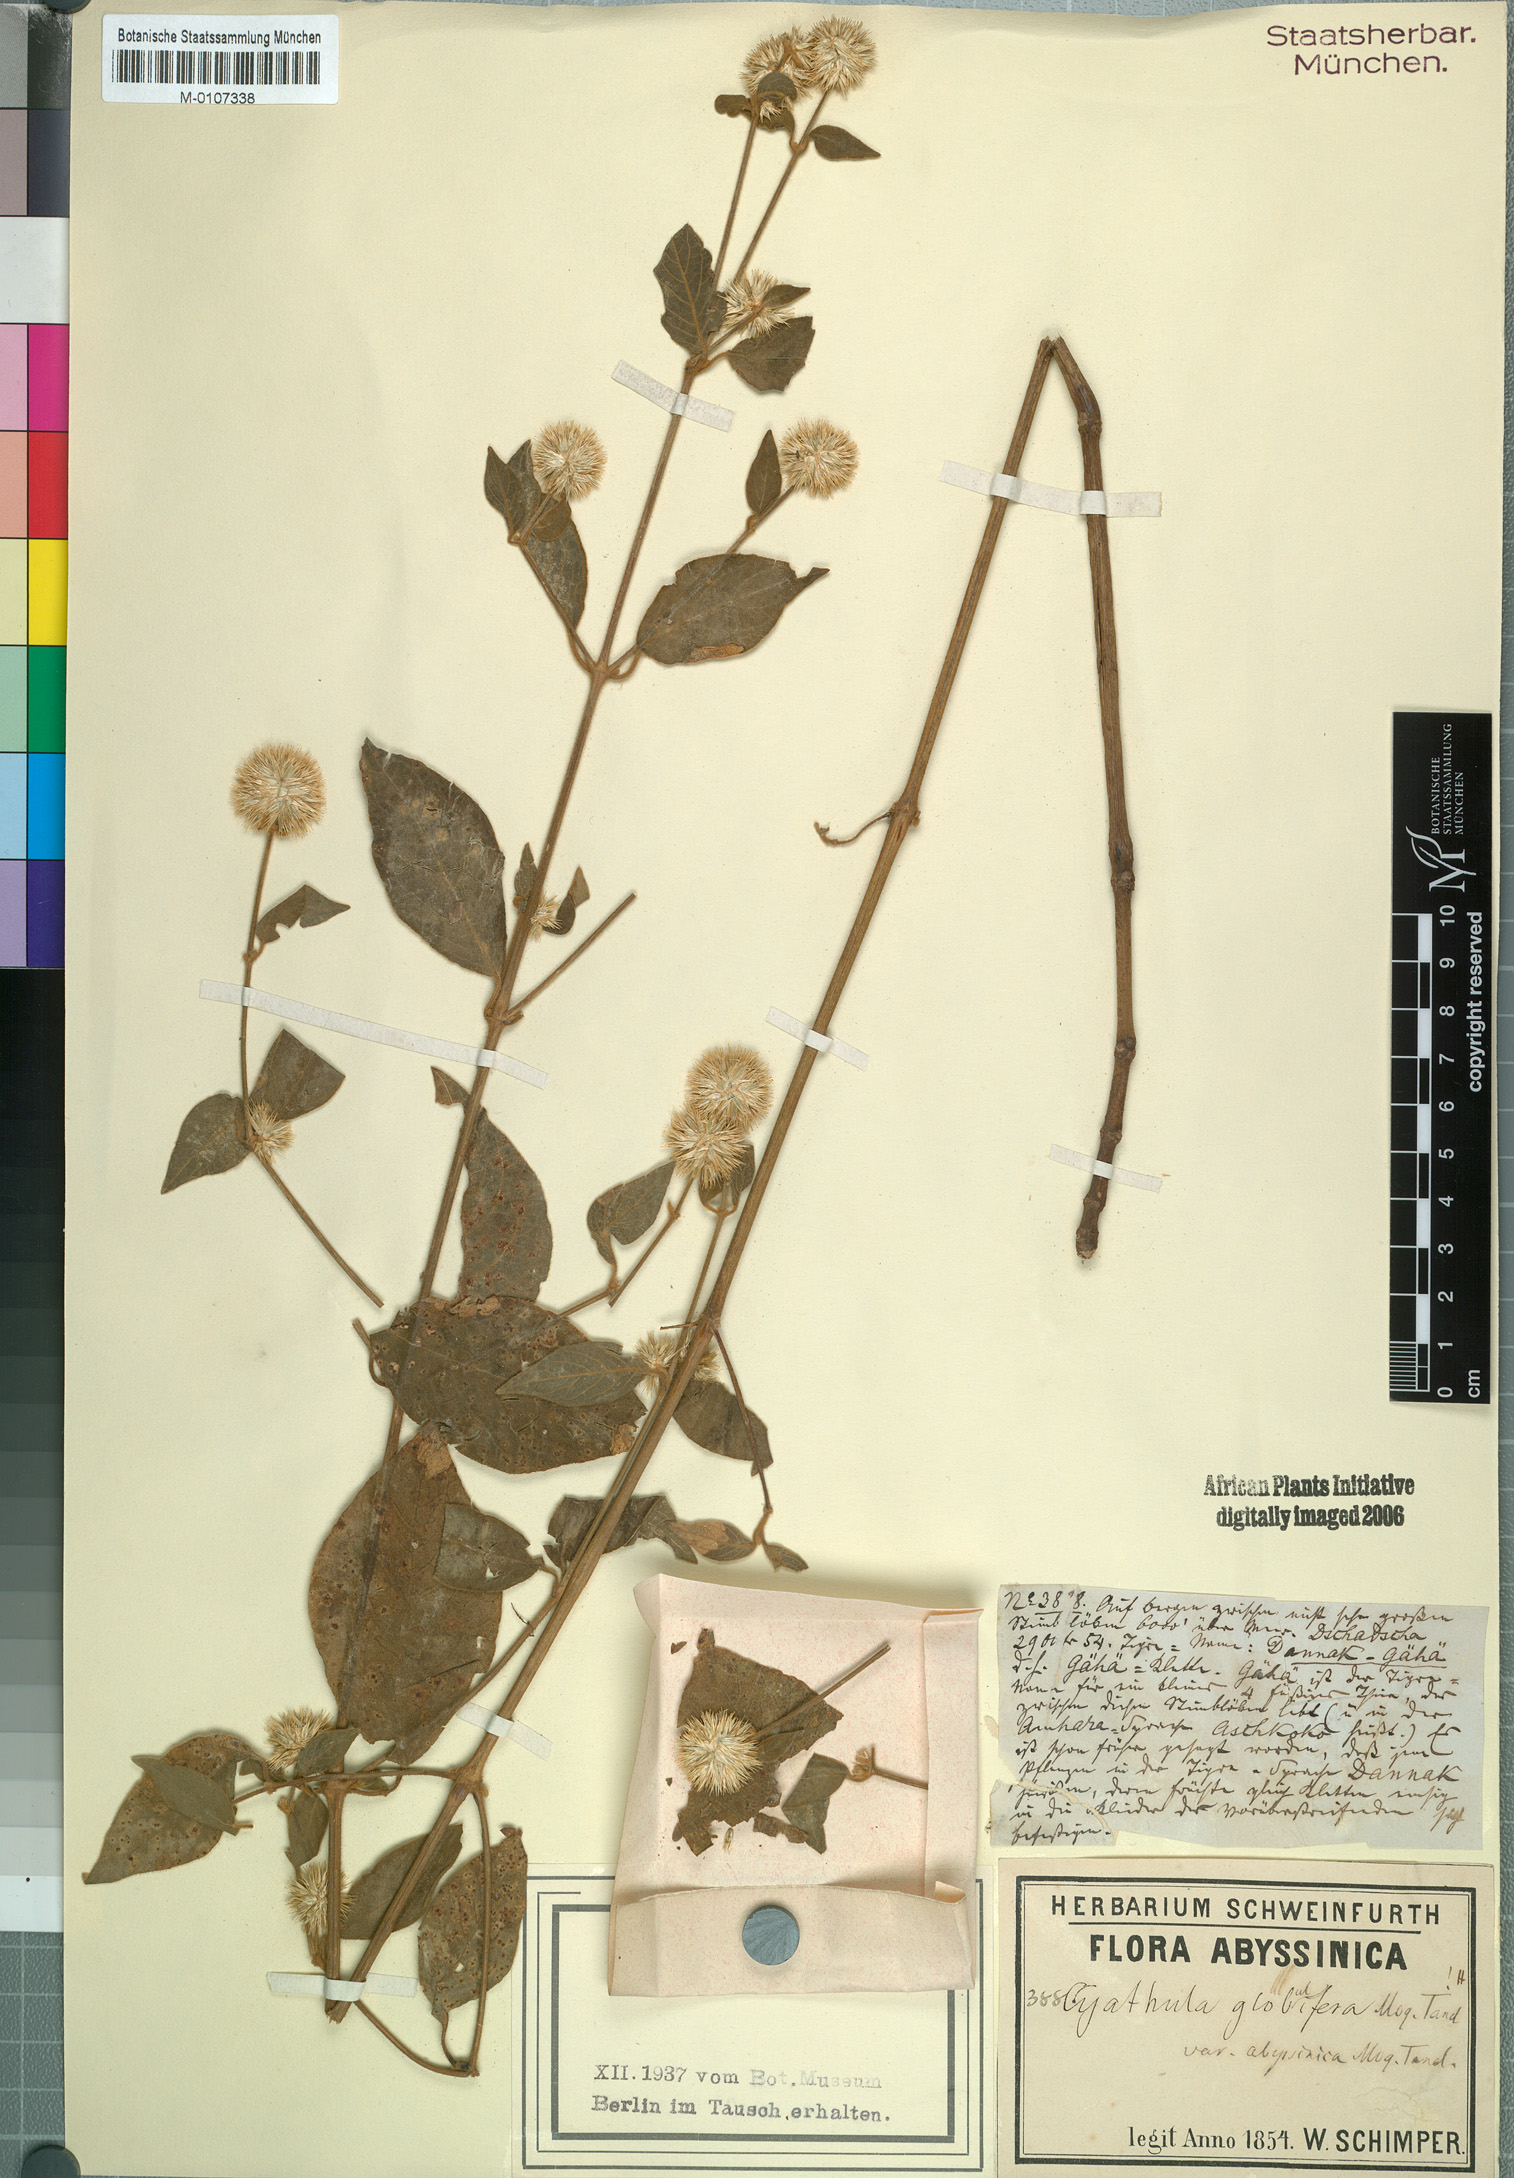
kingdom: Plantae
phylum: Tracheophyta
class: Magnoliopsida
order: Caryophyllales
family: Amaranthaceae
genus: Cyathula
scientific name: Cyathula uncinulata
